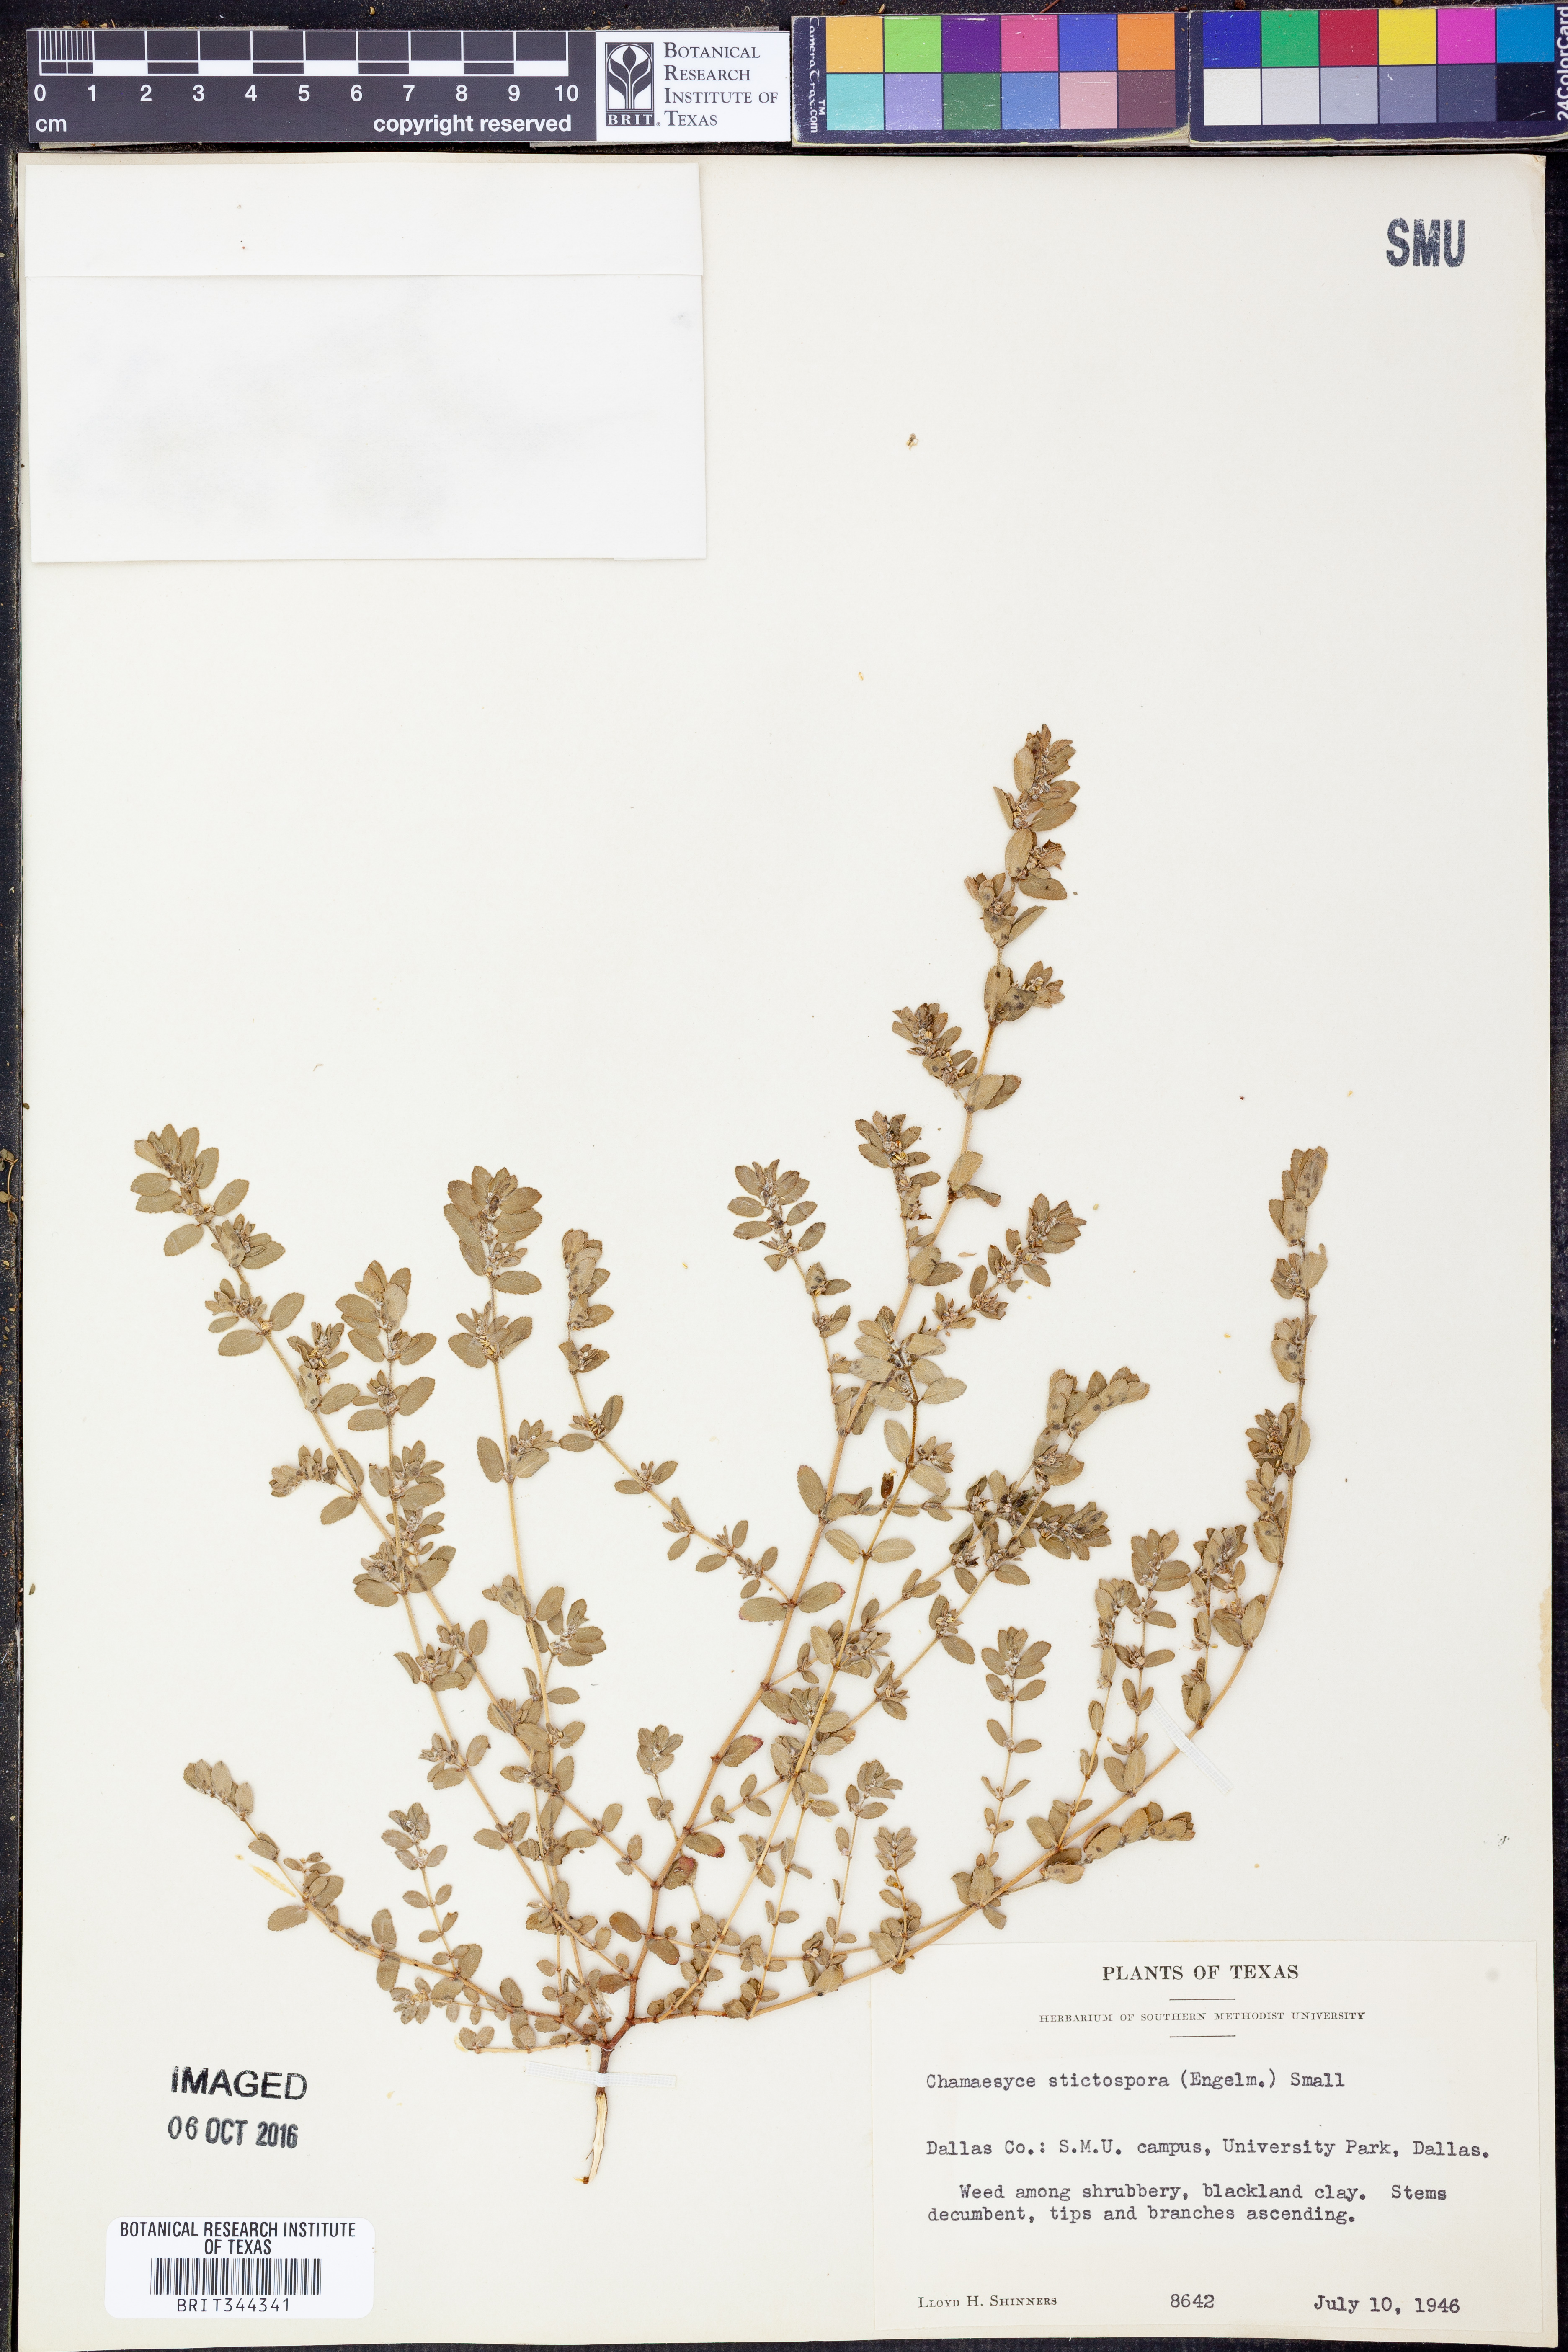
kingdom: Plantae
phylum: Tracheophyta
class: Magnoliopsida
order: Malpighiales
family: Euphorbiaceae
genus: Euphorbia
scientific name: Euphorbia stictospora
